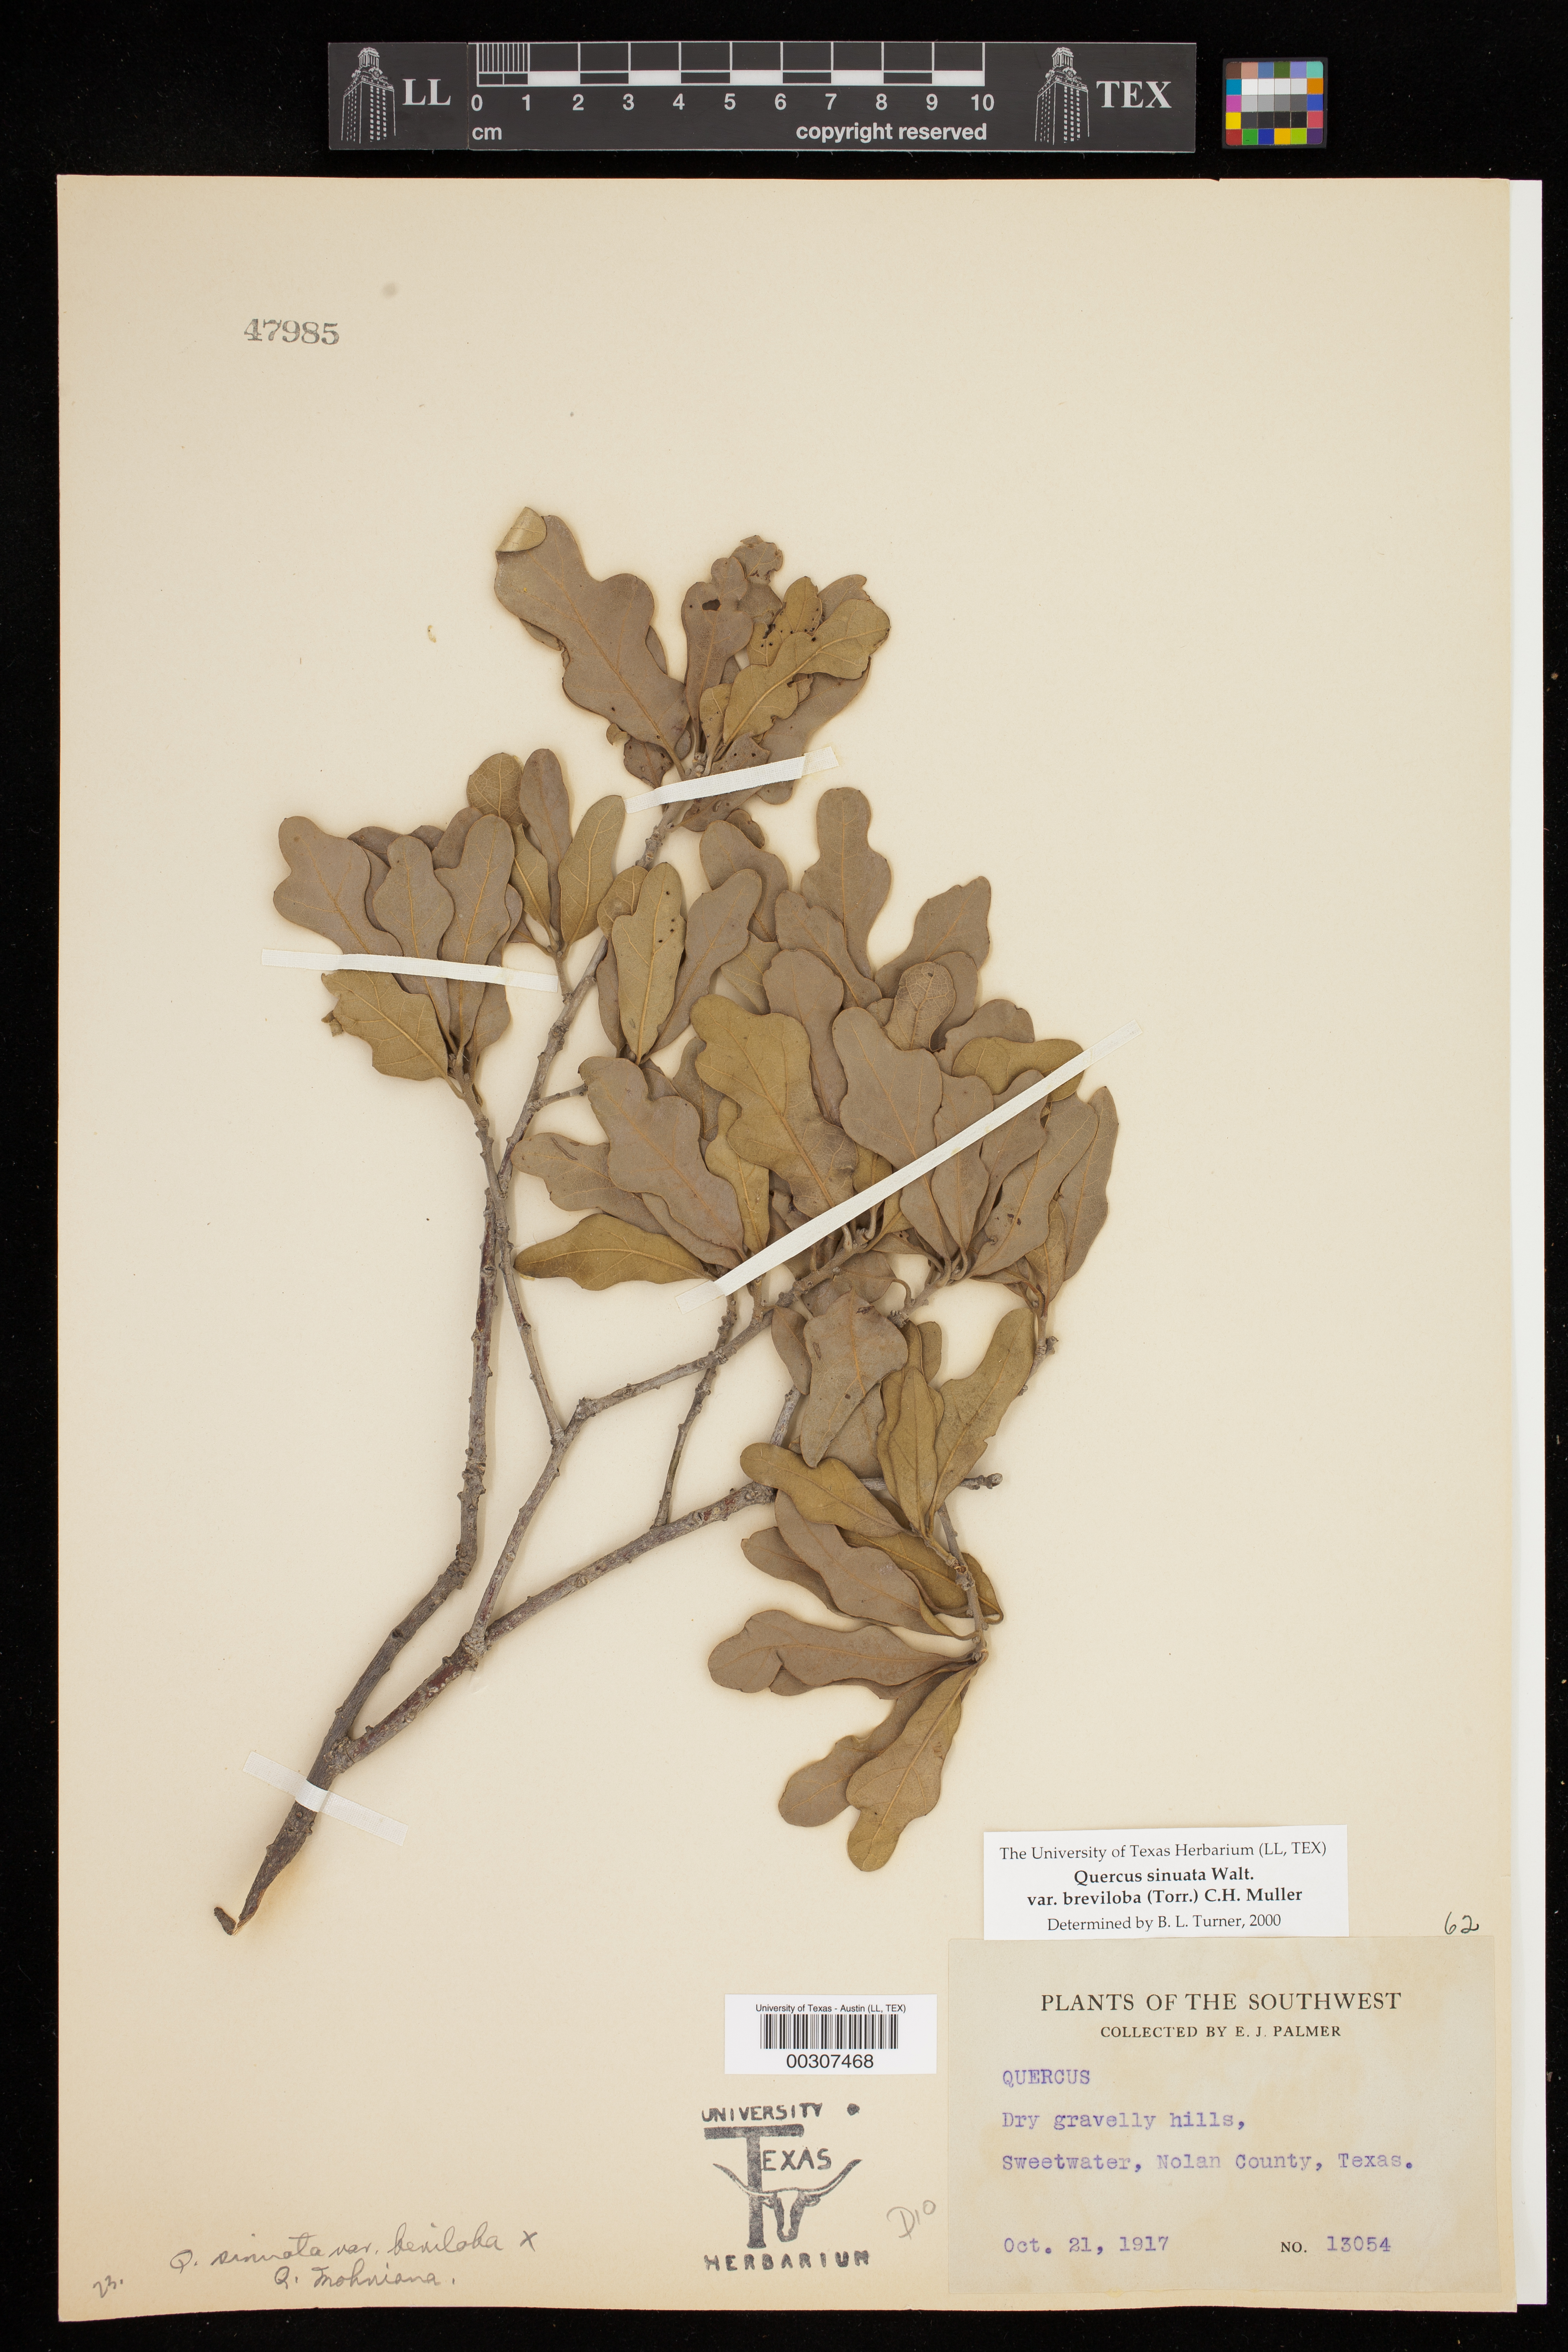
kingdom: Plantae
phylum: Tracheophyta
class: Magnoliopsida
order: Fagales
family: Fagaceae
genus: Quercus
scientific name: Quercus sinuata
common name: Durand oak
